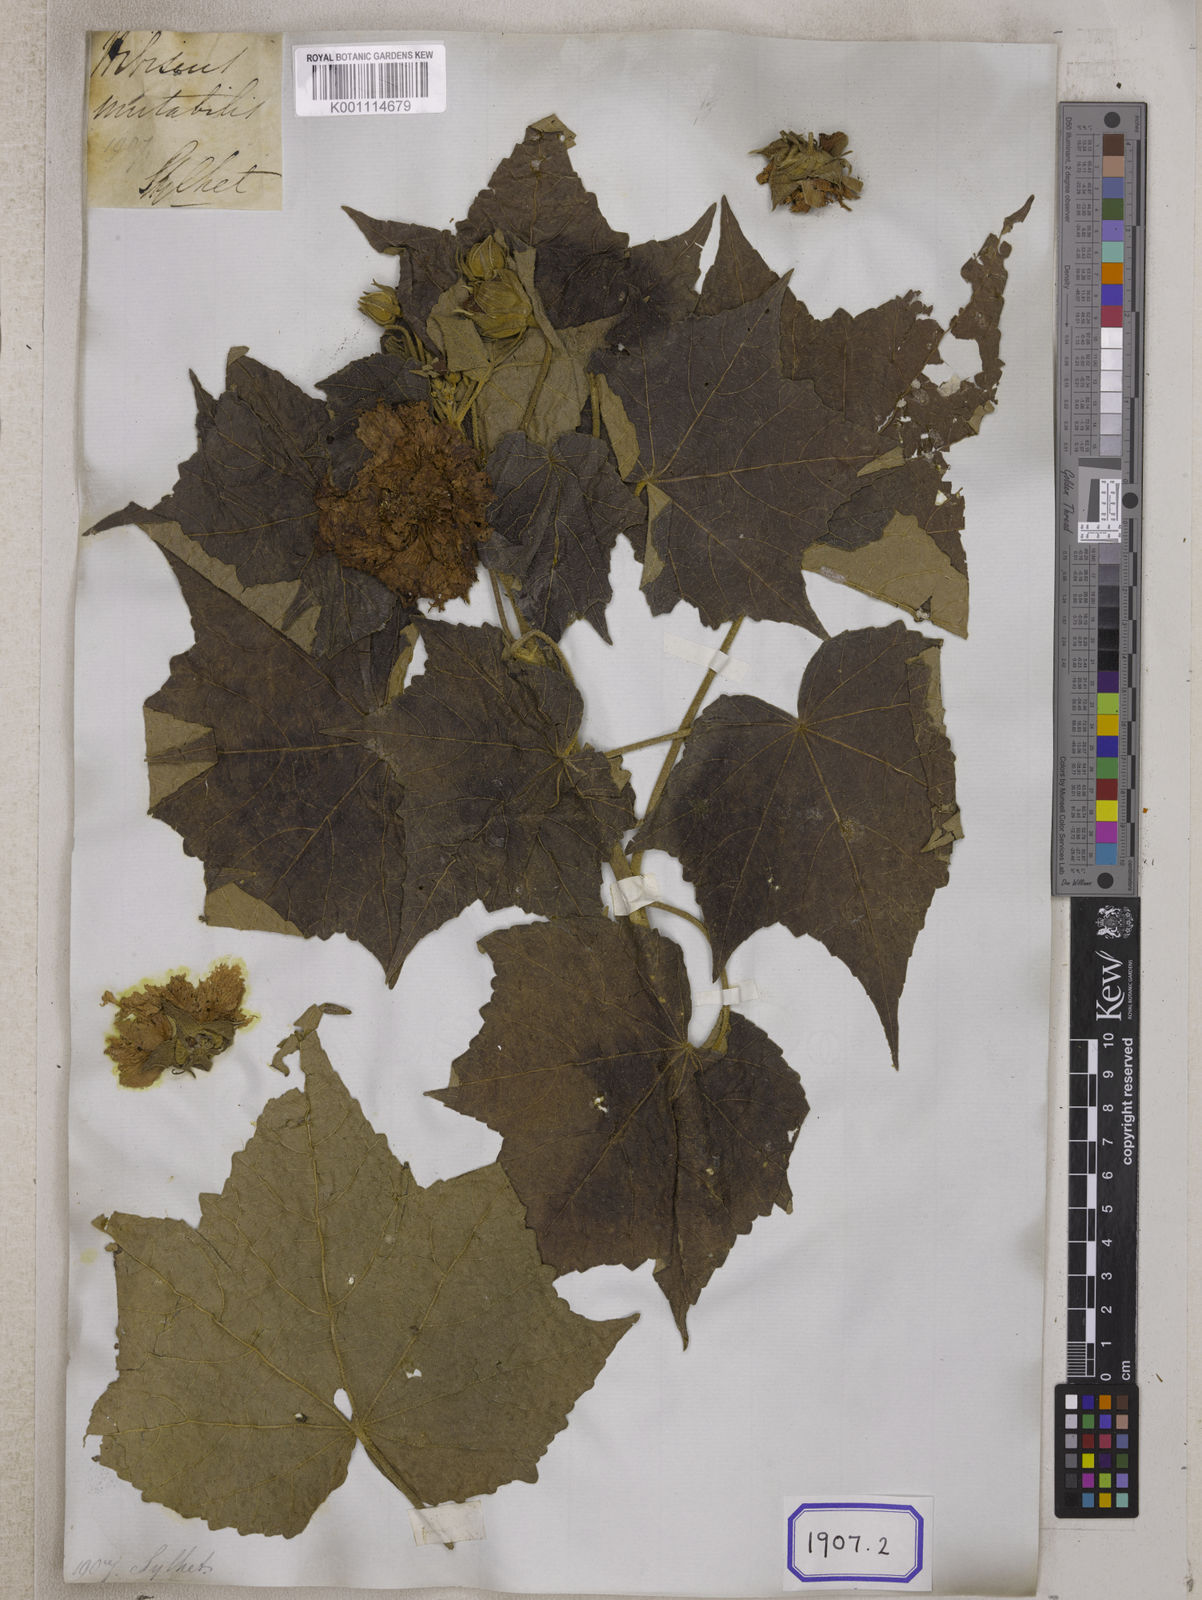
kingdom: Plantae
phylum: Tracheophyta
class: Magnoliopsida
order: Malvales
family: Malvaceae
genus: Hibiscus
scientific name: Hibiscus mutabilis
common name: Dixie rosemallow
